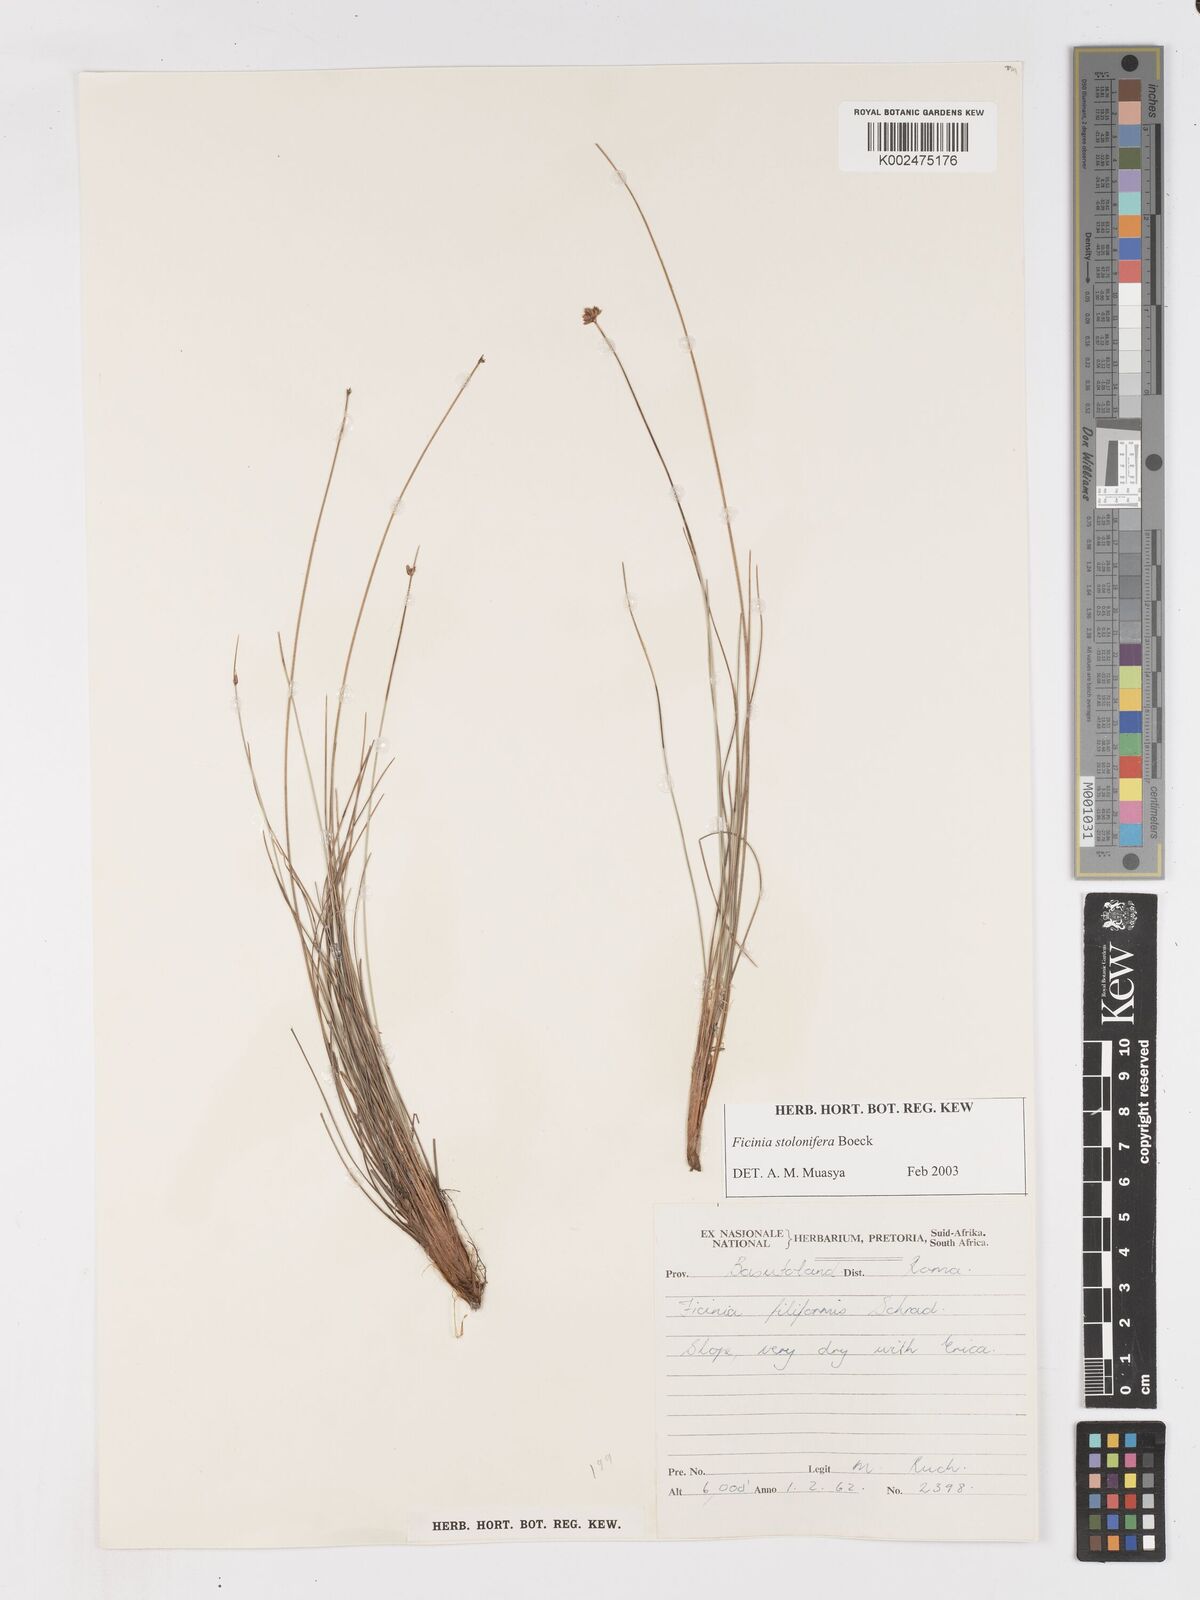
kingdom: Plantae
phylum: Tracheophyta
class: Liliopsida
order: Poales
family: Cyperaceae
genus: Ficinia
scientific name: Ficinia stolonifera
